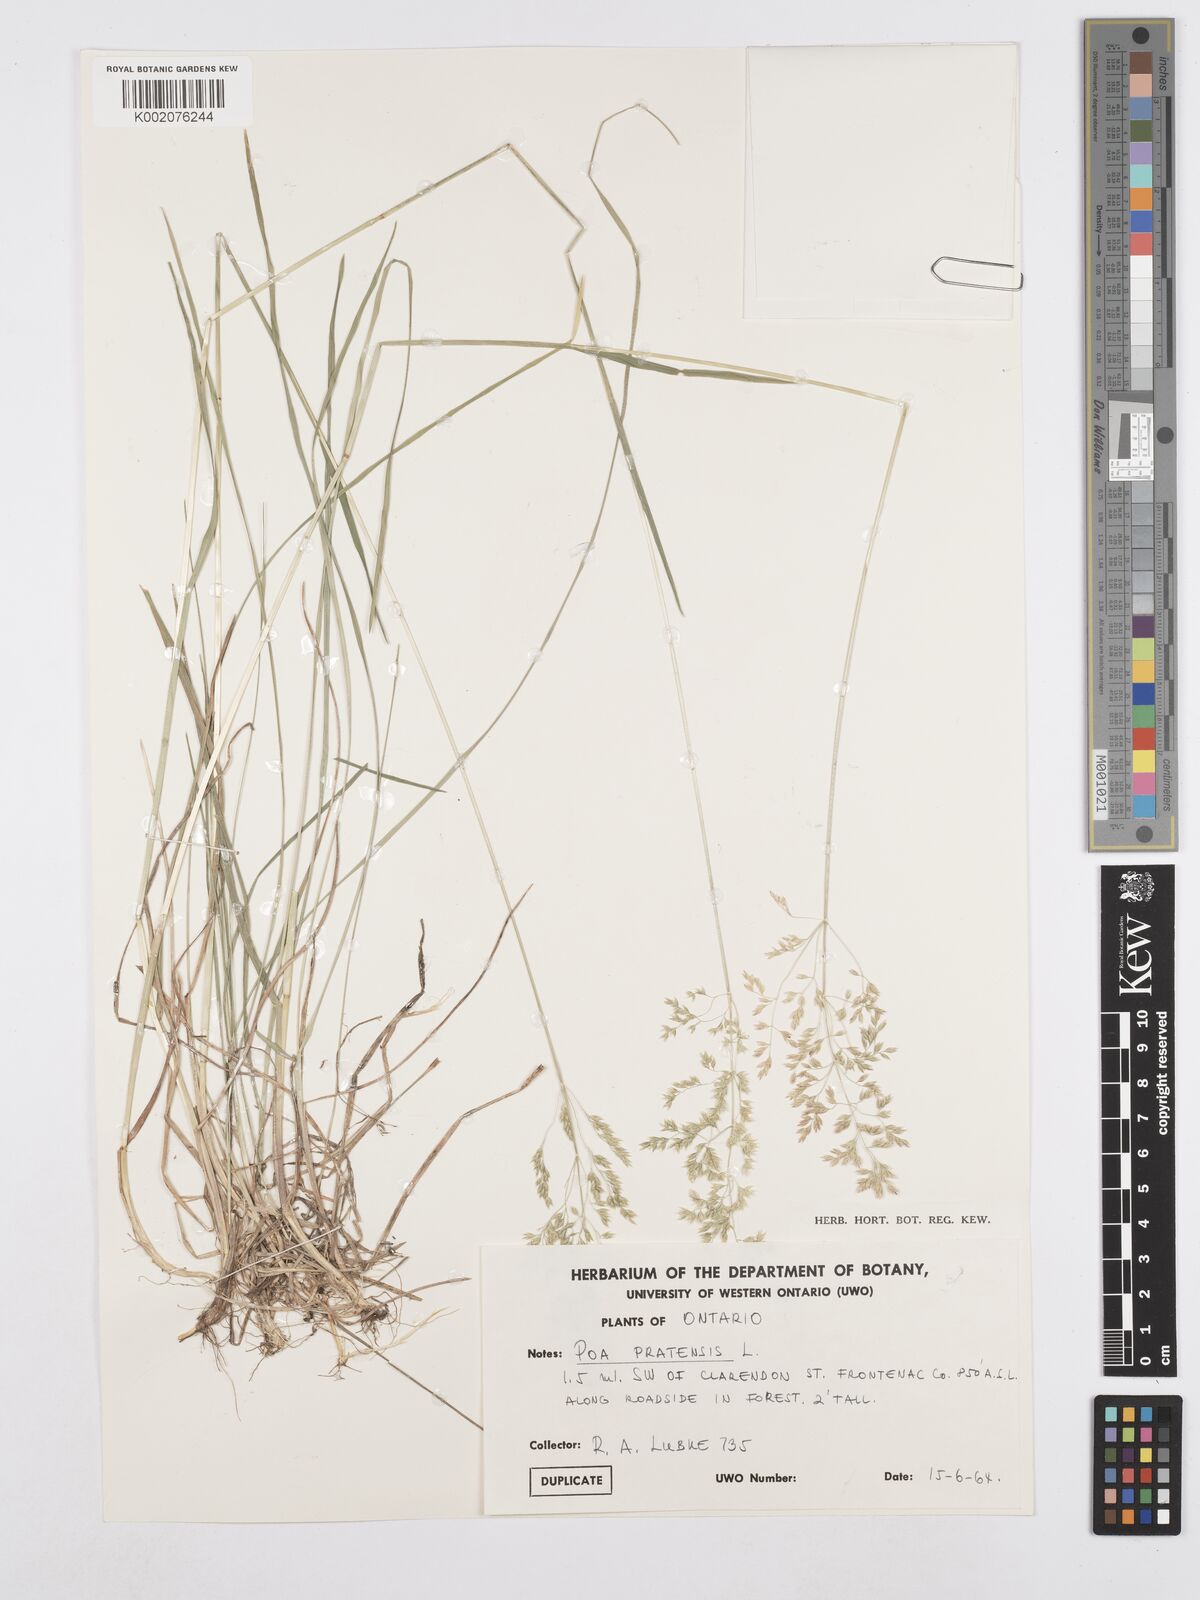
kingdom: Plantae
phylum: Tracheophyta
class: Liliopsida
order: Poales
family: Poaceae
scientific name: Poaceae
